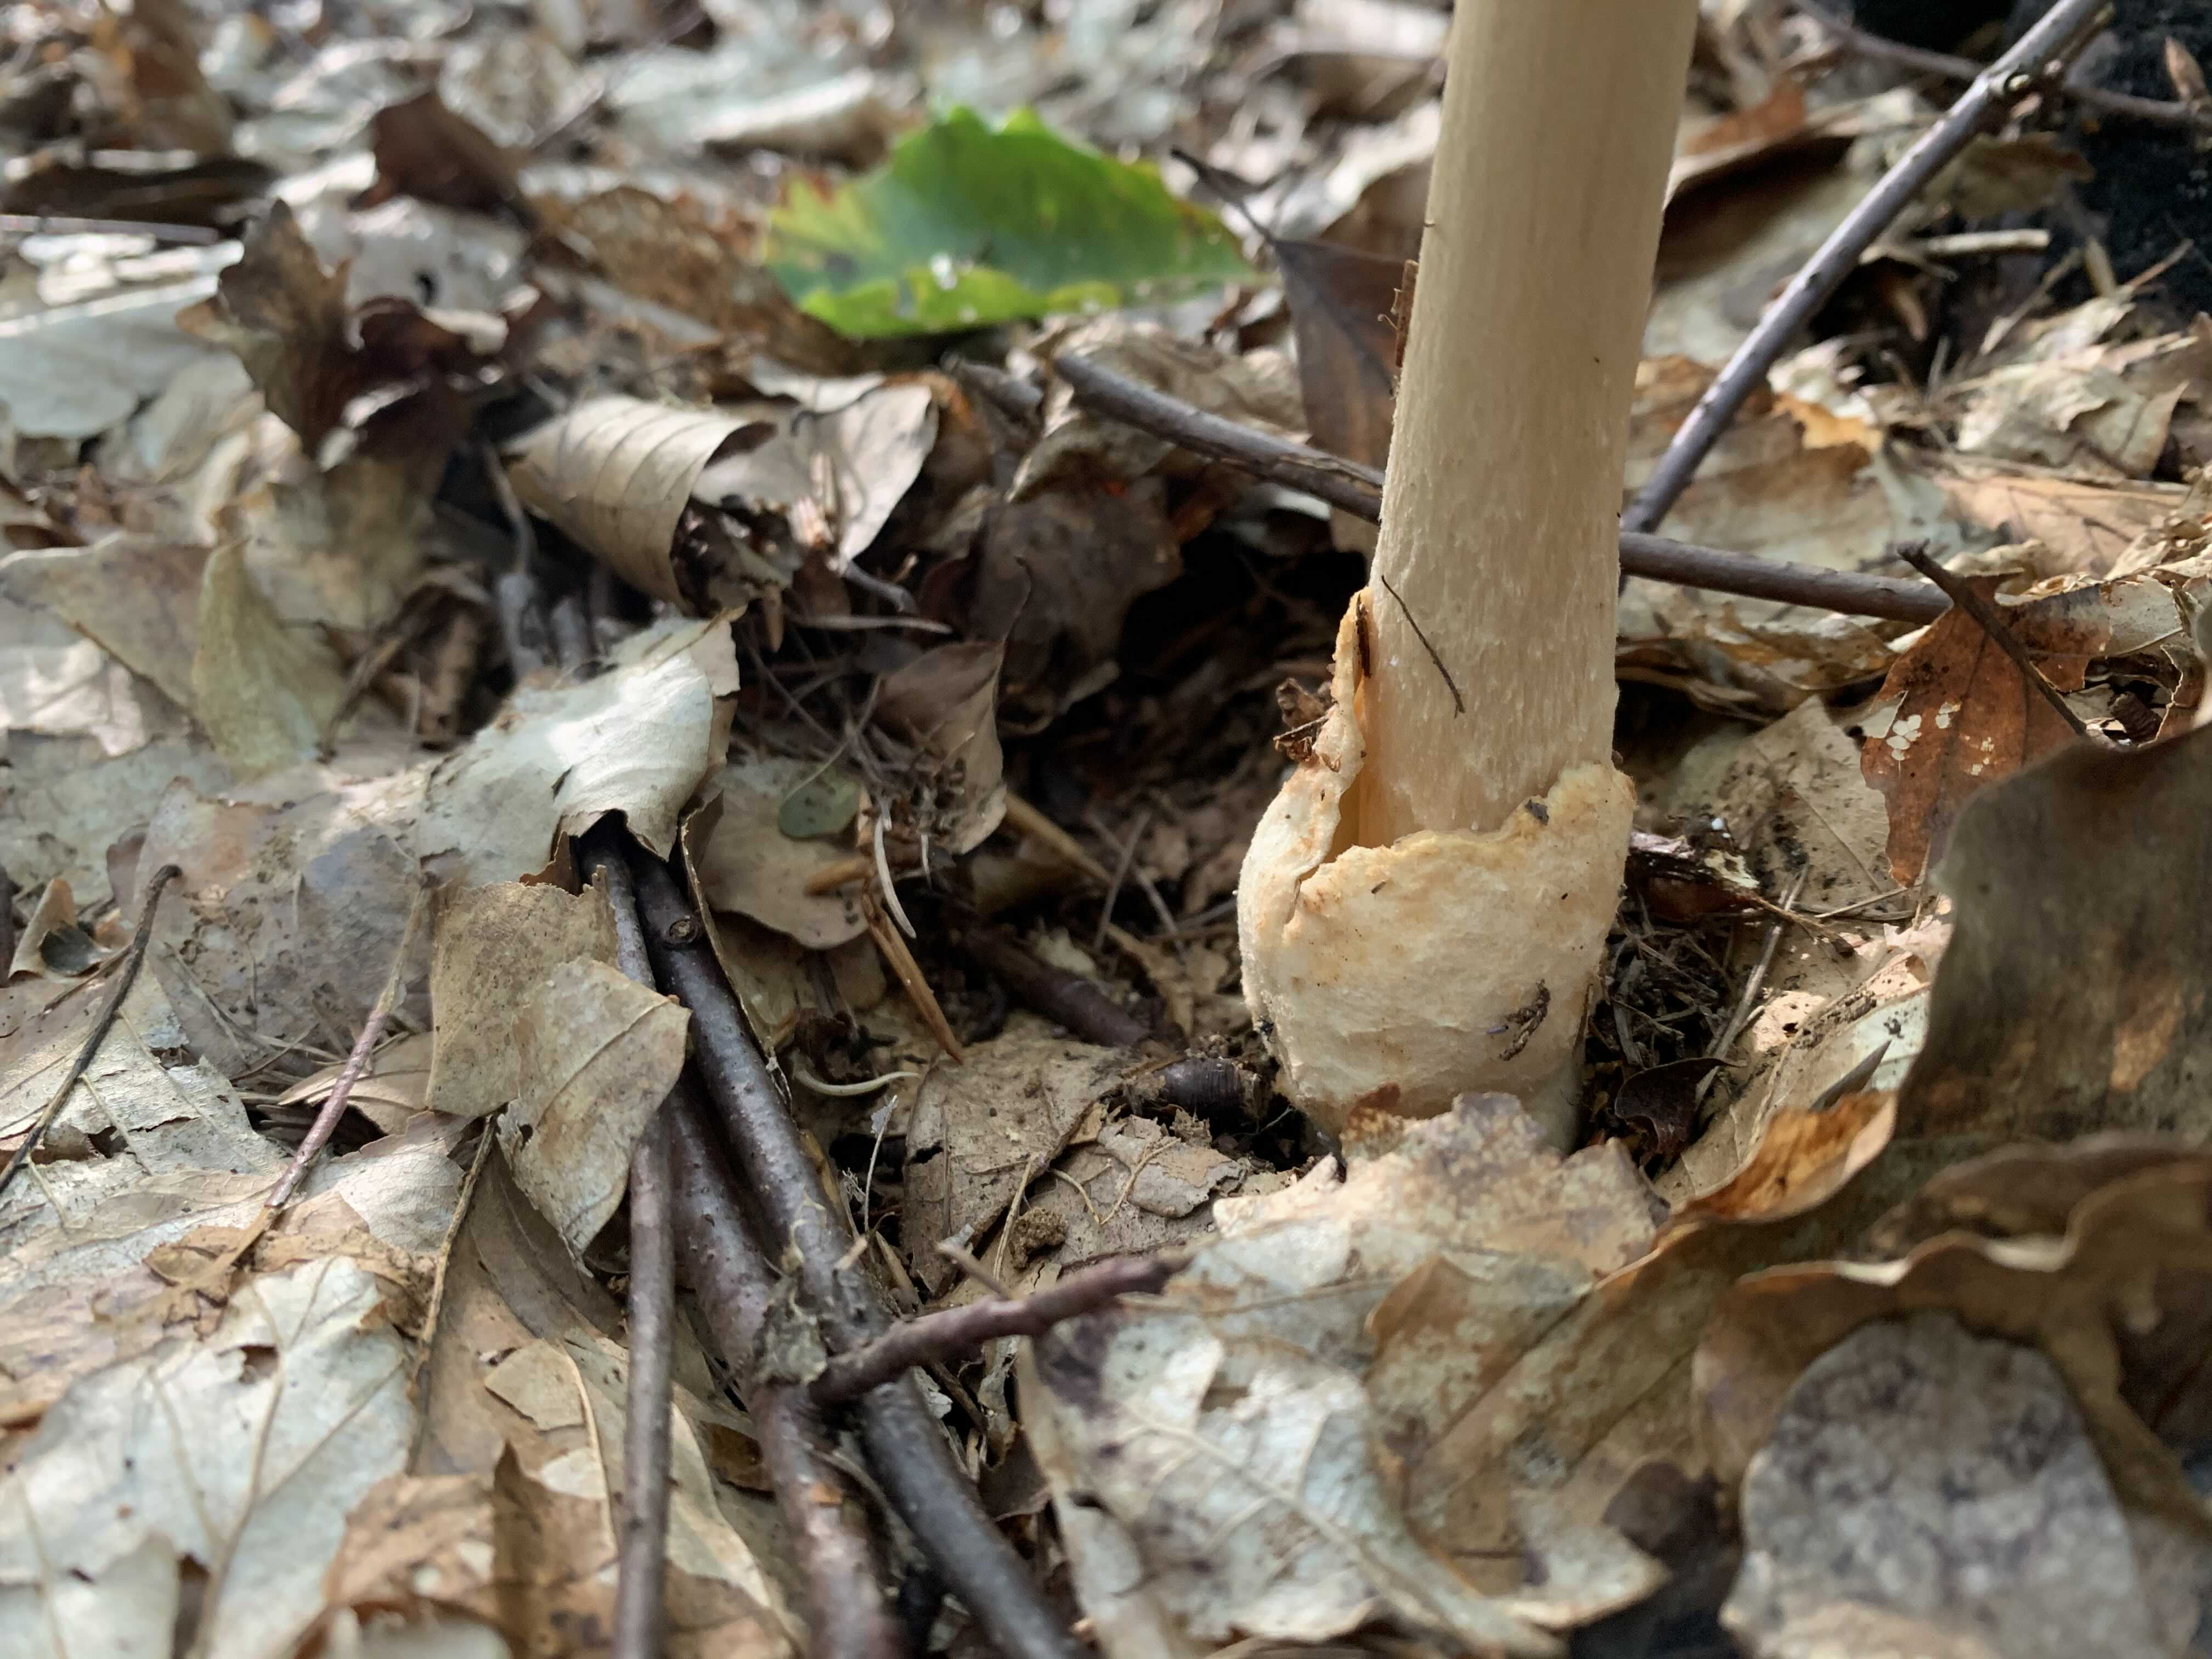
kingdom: Fungi
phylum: Basidiomycota
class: Agaricomycetes
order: Agaricales
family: Amanitaceae
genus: Amanita
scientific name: Amanita fulva
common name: brun kam-fluesvamp
